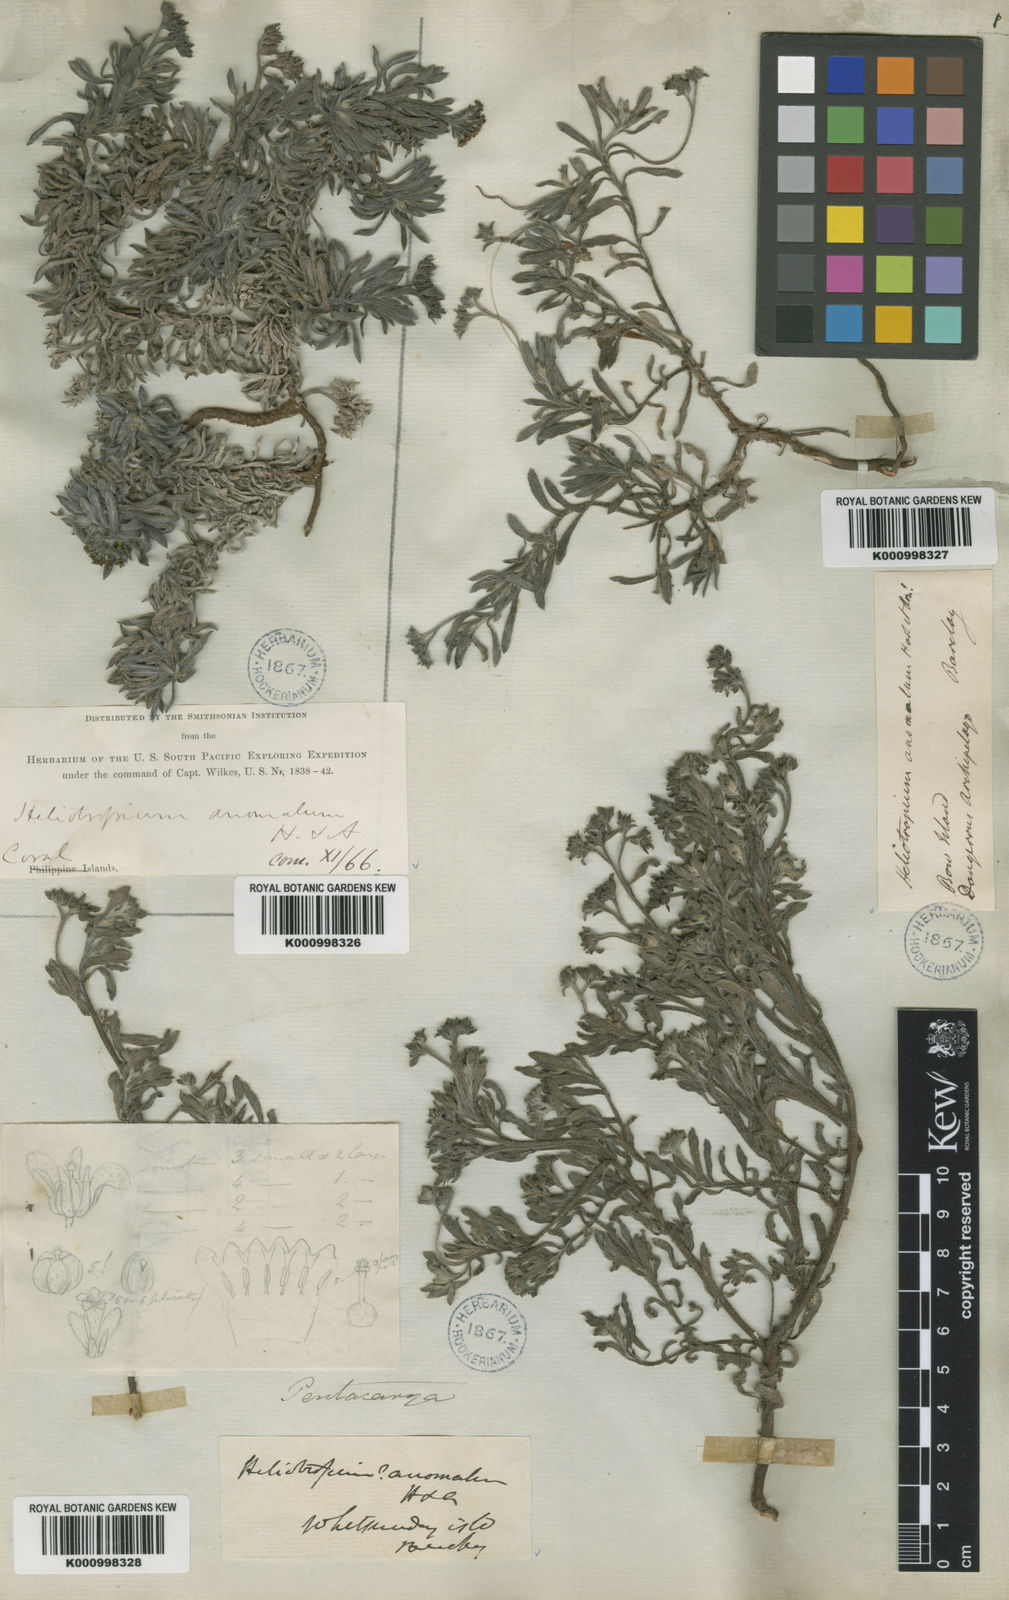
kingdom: Plantae
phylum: Tracheophyta
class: Magnoliopsida
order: Boraginales
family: Heliotropiaceae
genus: Heliotropium
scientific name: Heliotropium anomalum
